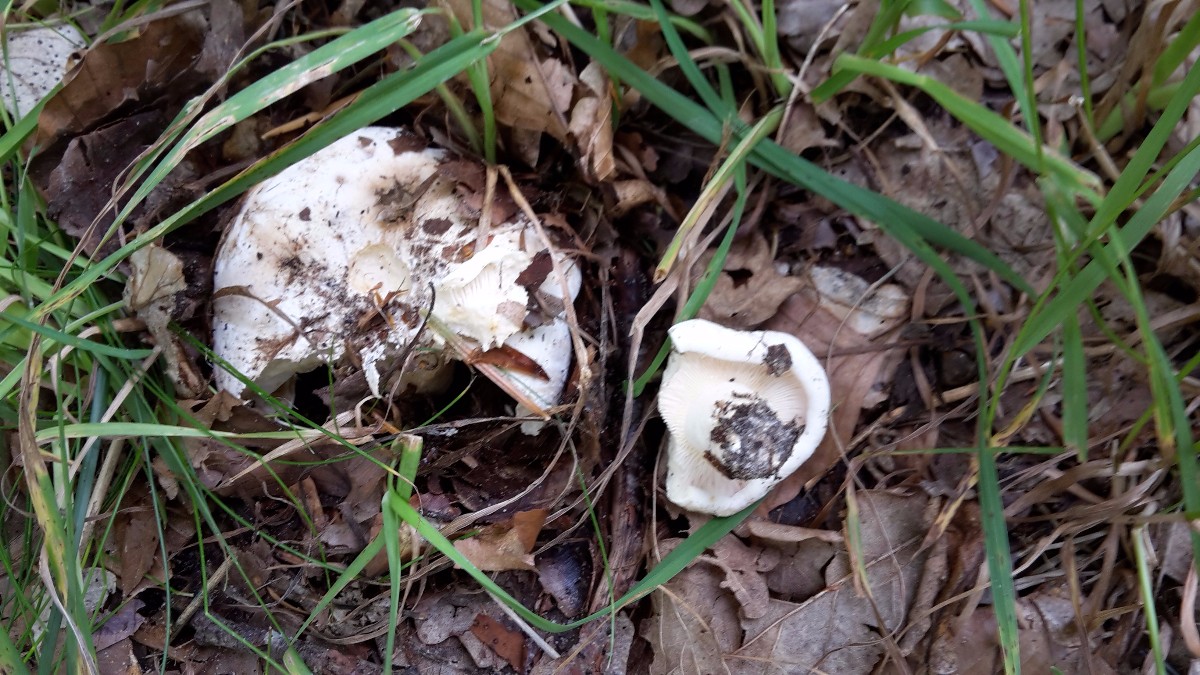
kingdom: Fungi
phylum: Basidiomycota
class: Agaricomycetes
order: Russulales
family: Russulaceae
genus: Lactifluus
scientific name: Lactifluus bertillonii
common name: blødfiltet mælkehat
